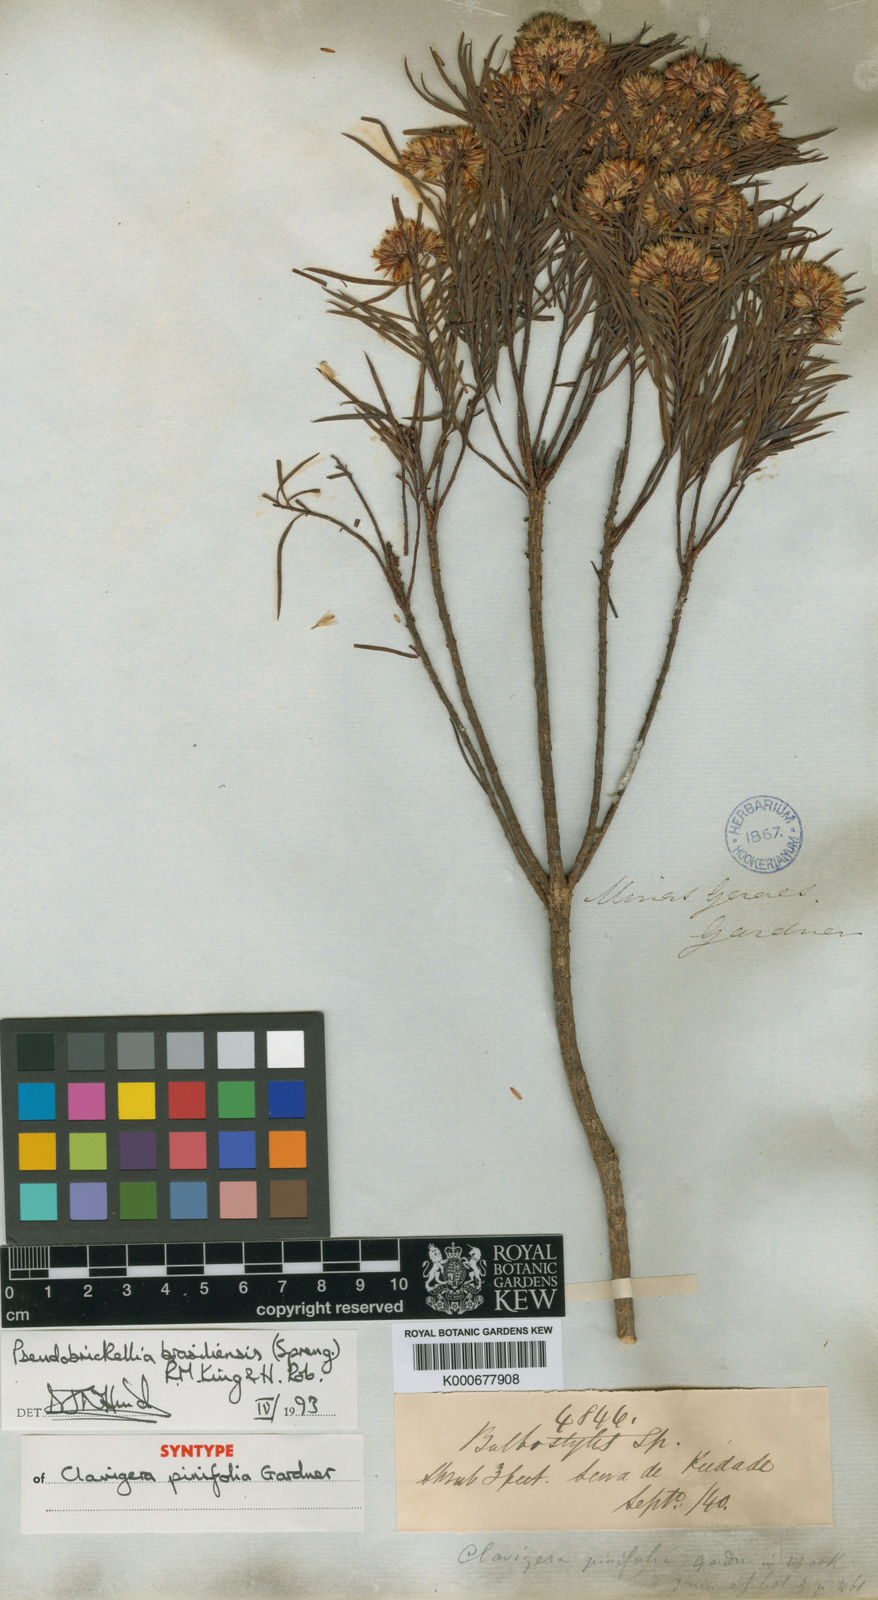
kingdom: Plantae
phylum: Tracheophyta
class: Magnoliopsida
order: Asterales
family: Asteraceae
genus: Pseudobrickellia
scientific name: Pseudobrickellia brasiliensis
